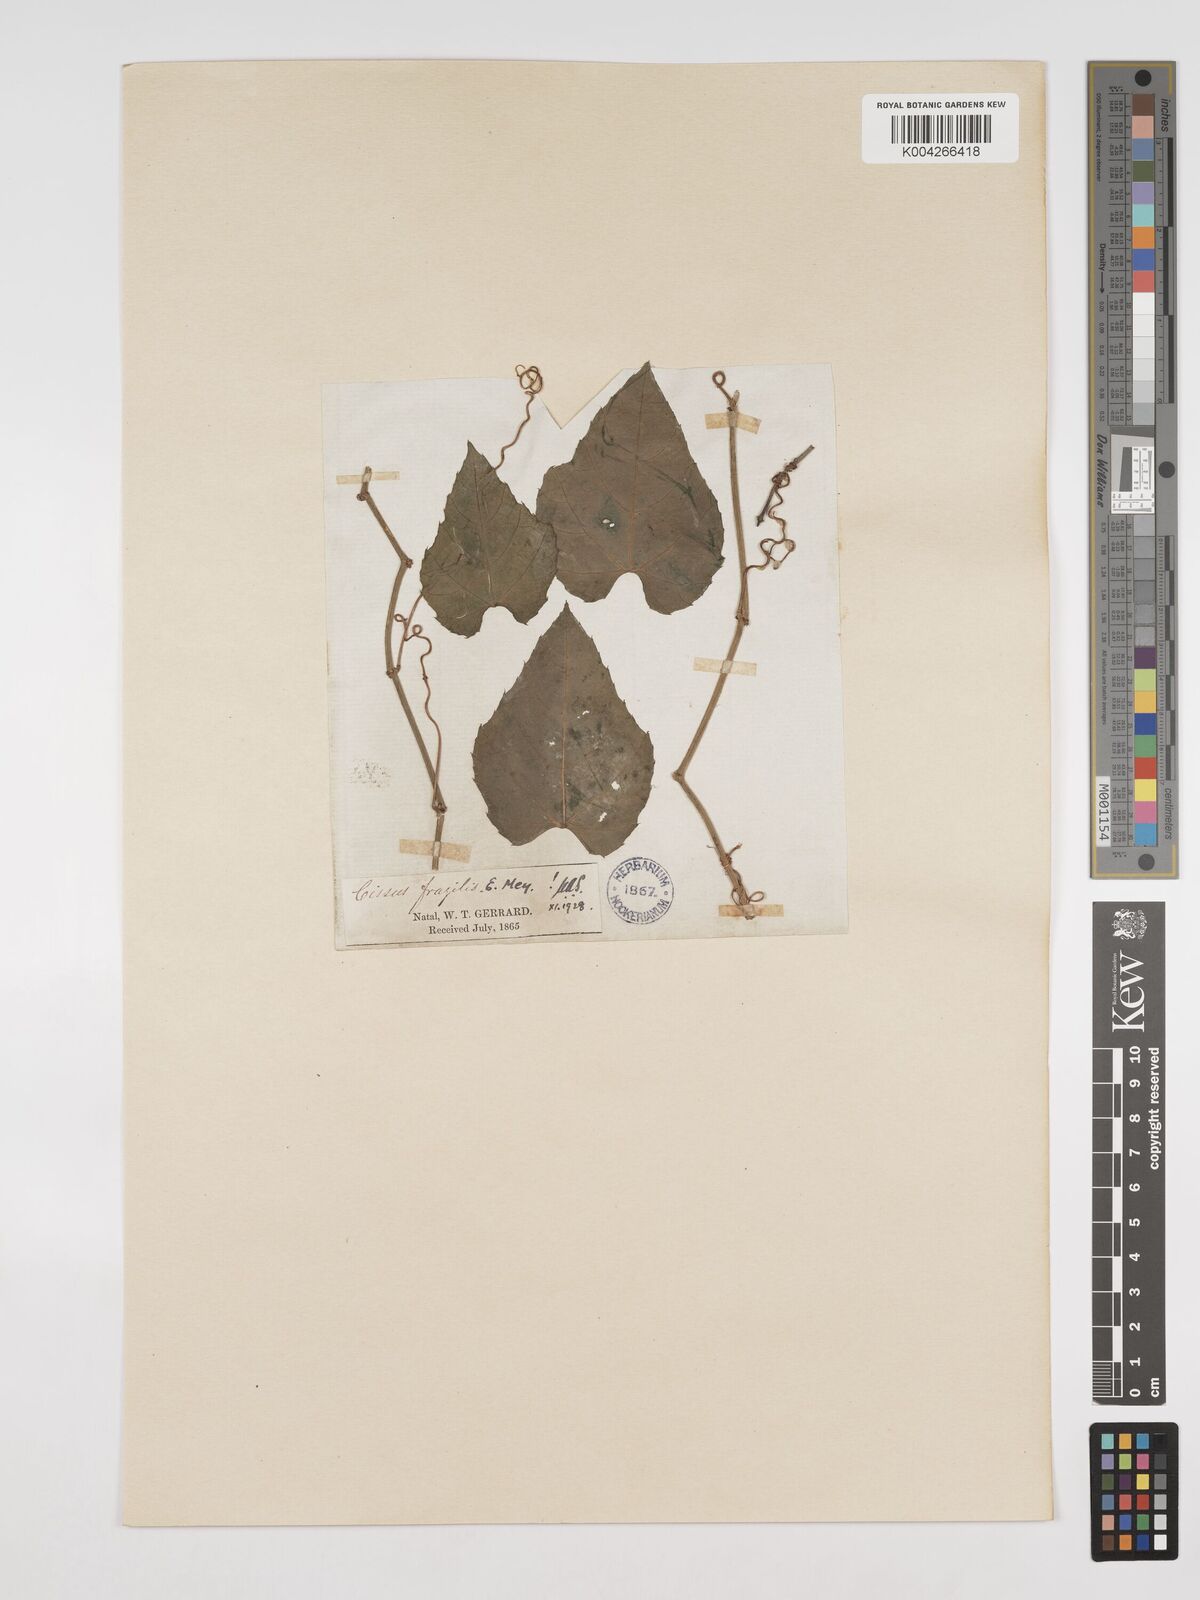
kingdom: Plantae
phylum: Tracheophyta
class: Magnoliopsida
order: Vitales
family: Vitaceae
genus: Cissus
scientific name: Cissus fragilis
